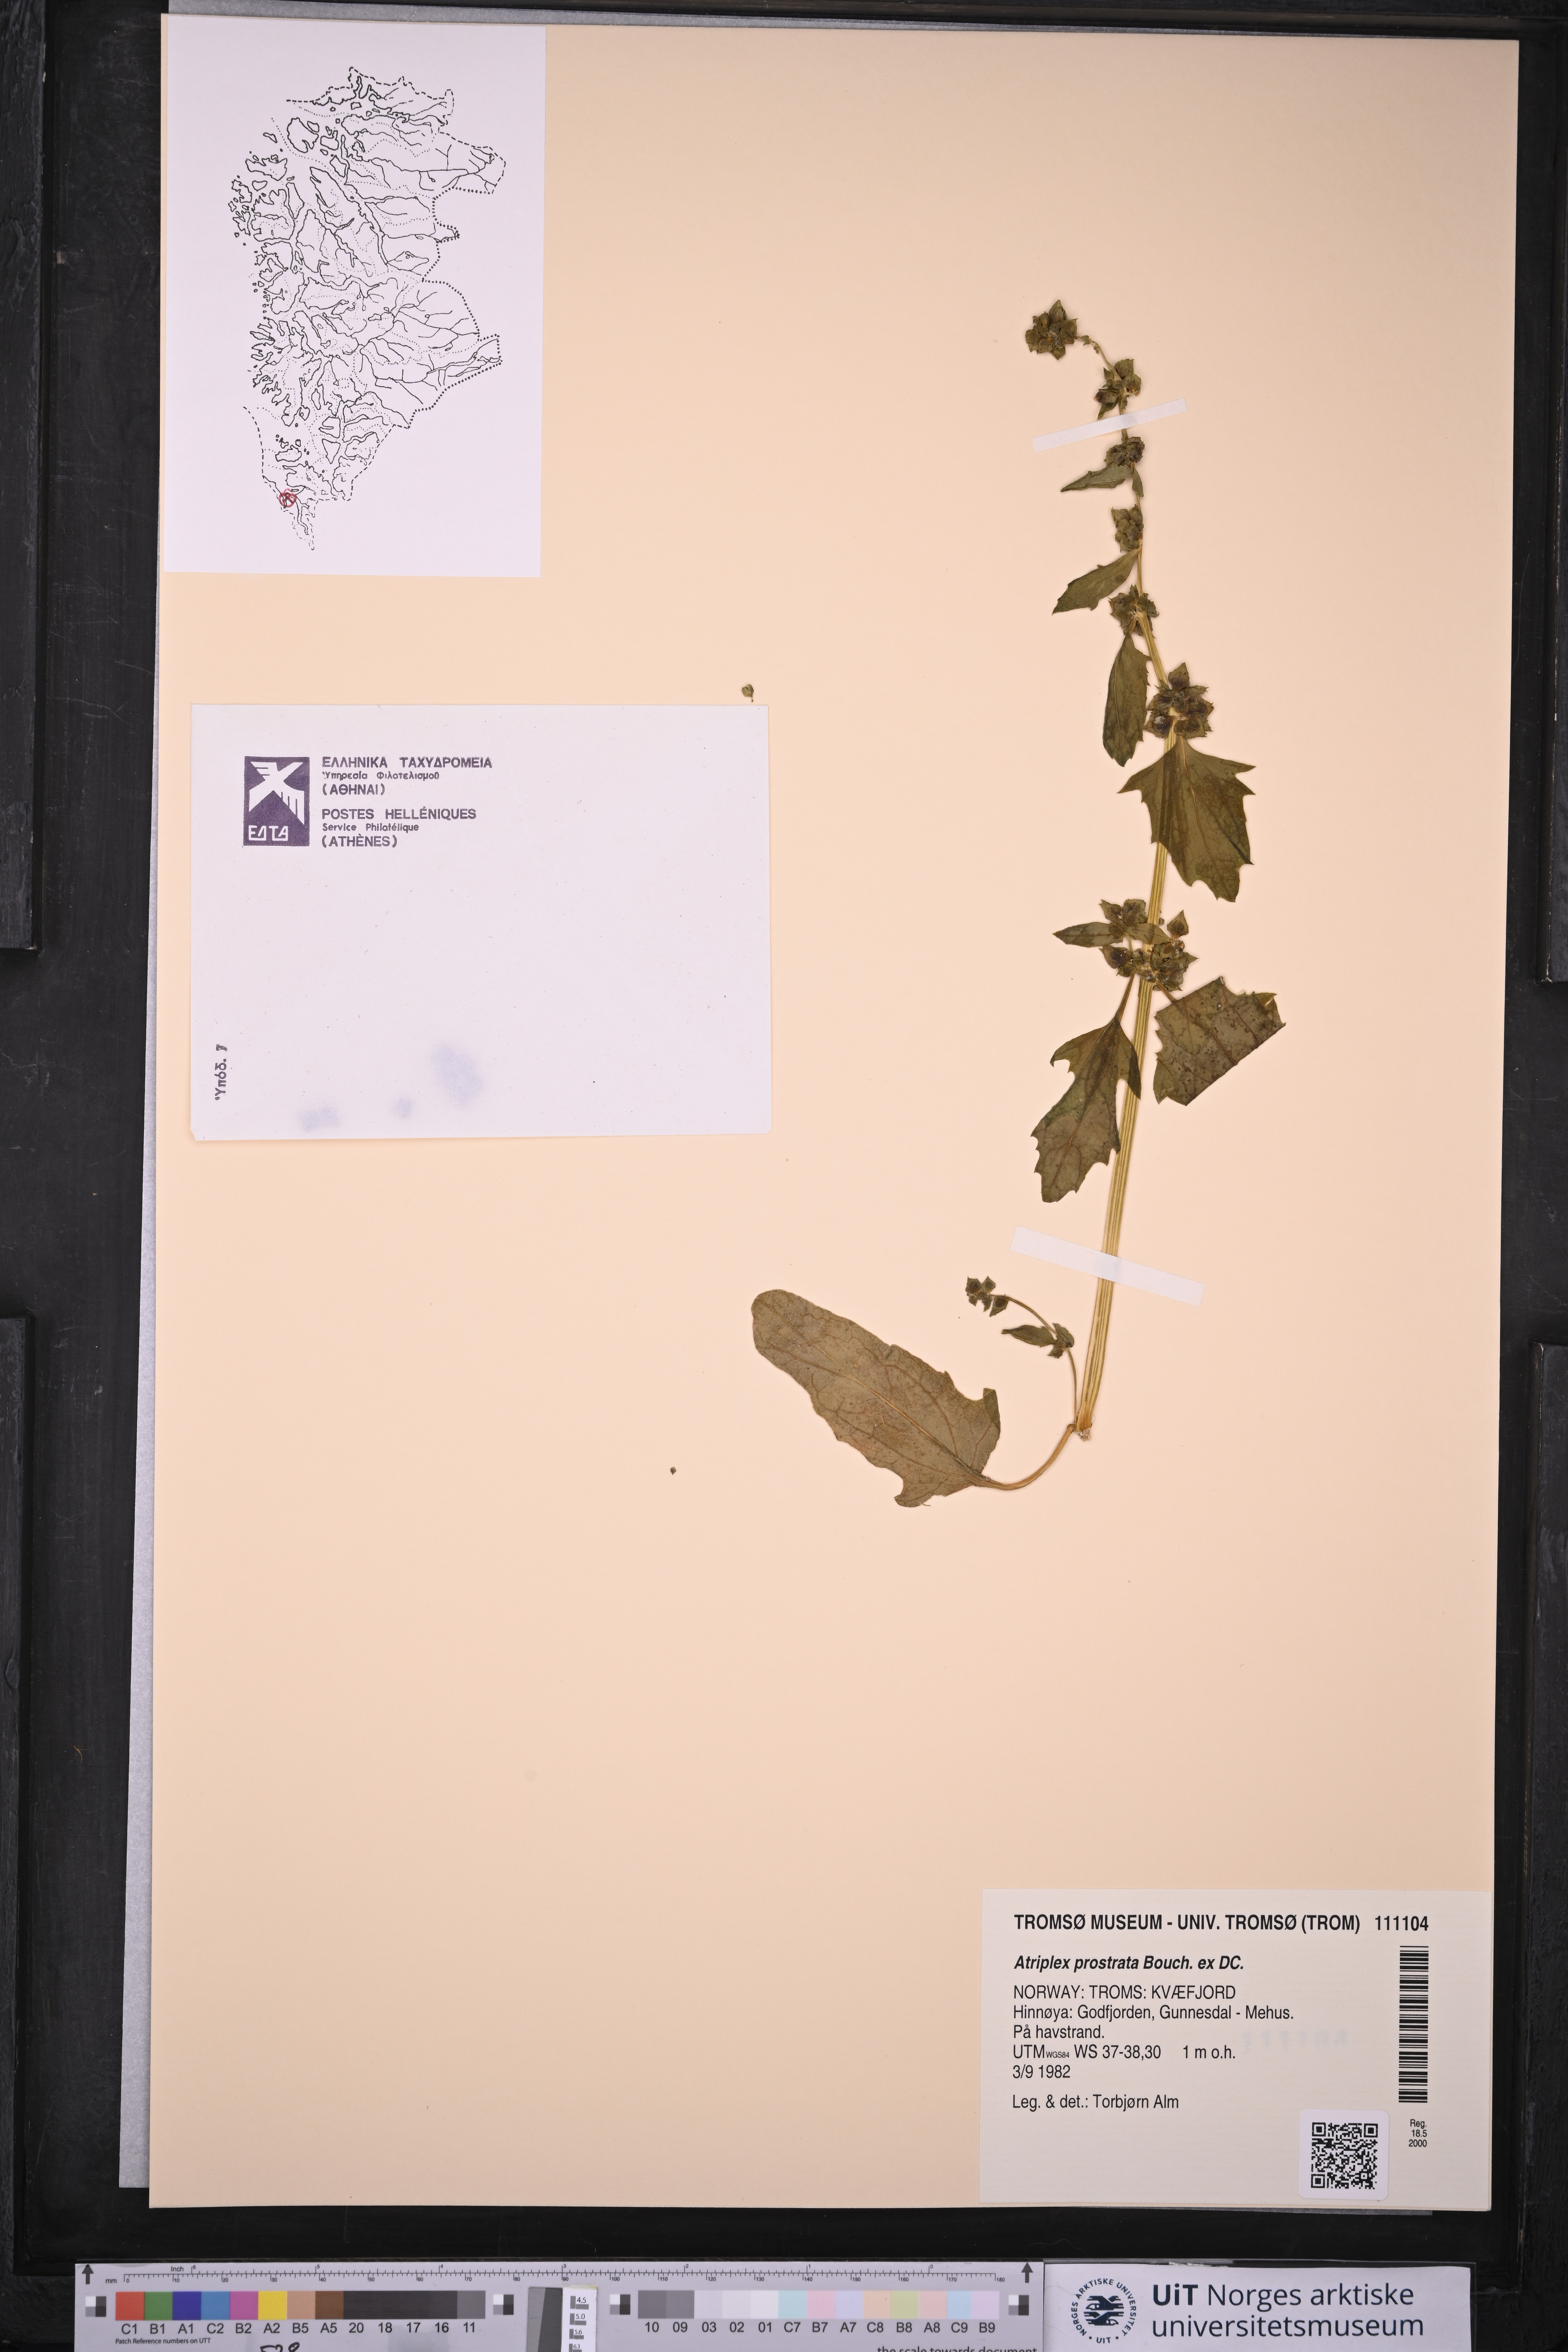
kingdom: Plantae
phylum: Tracheophyta
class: Magnoliopsida
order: Caryophyllales
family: Amaranthaceae
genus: Atriplex
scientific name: Atriplex prostrata
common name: Spear-leaved orache
